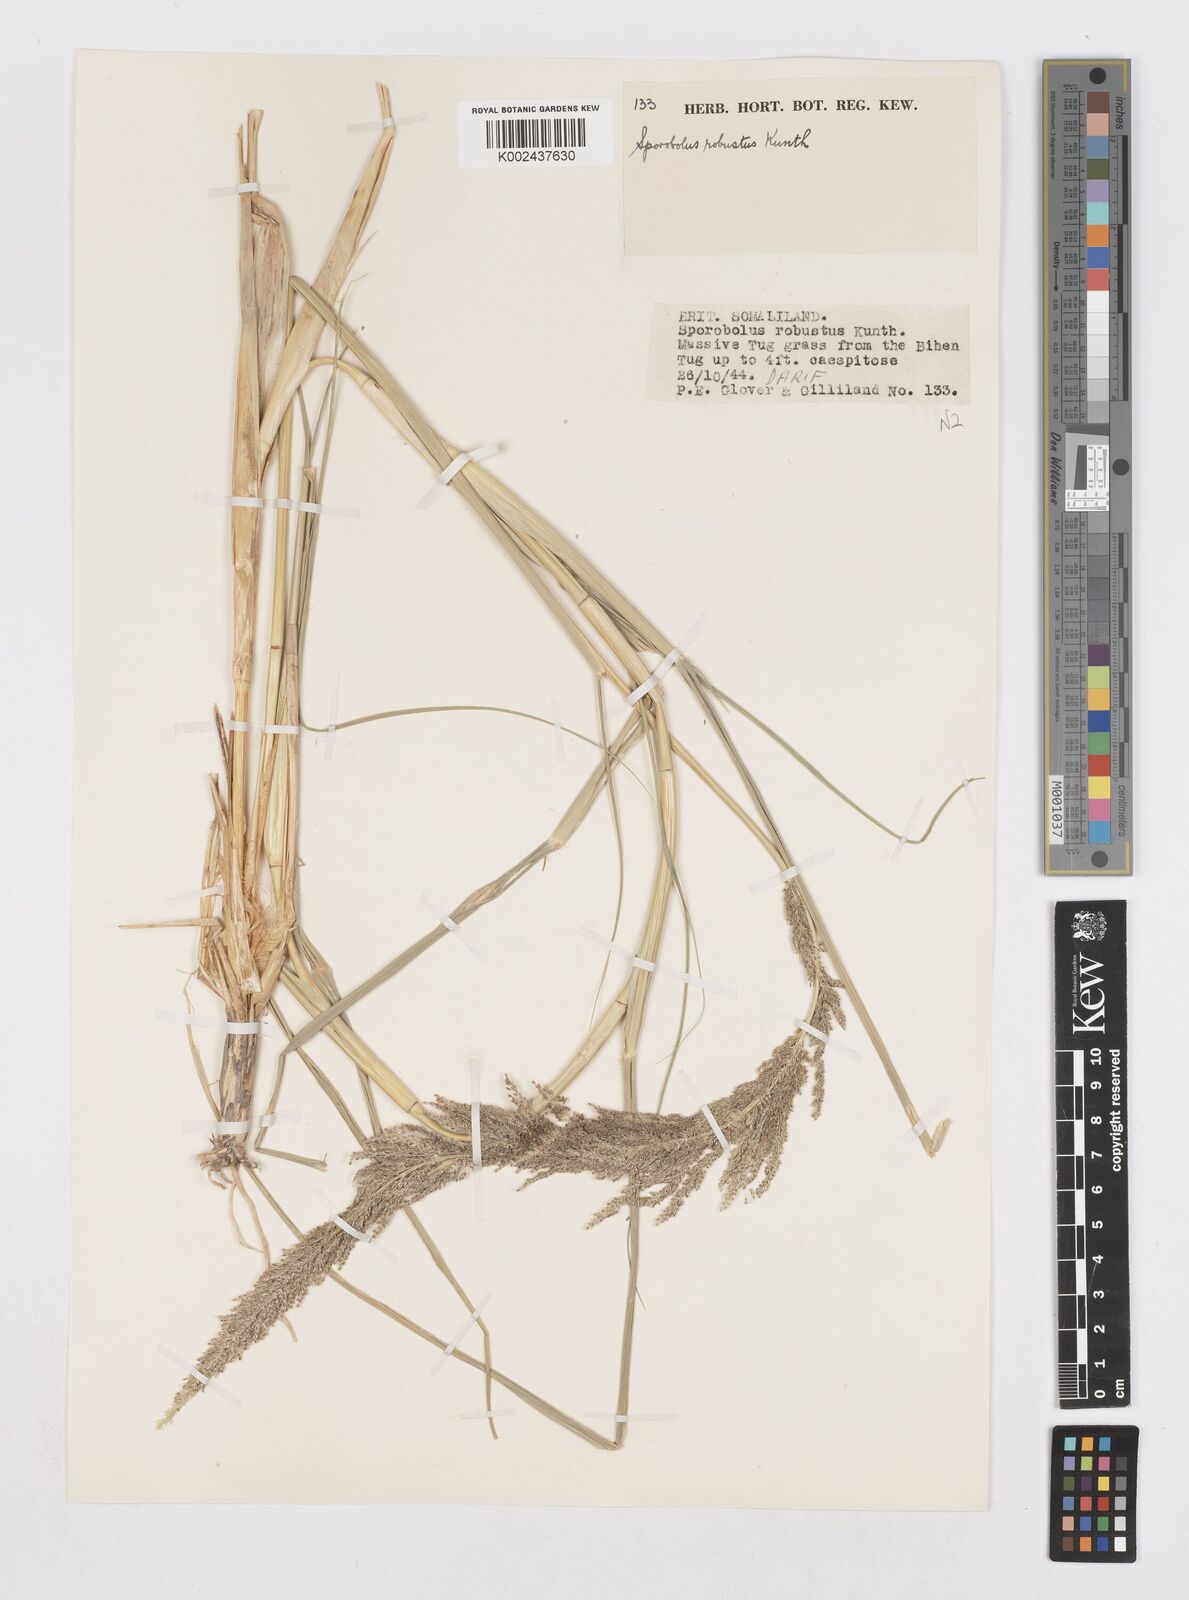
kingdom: Plantae
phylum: Tracheophyta
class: Liliopsida
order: Poales
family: Poaceae
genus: Sporobolus
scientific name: Sporobolus consimilis
